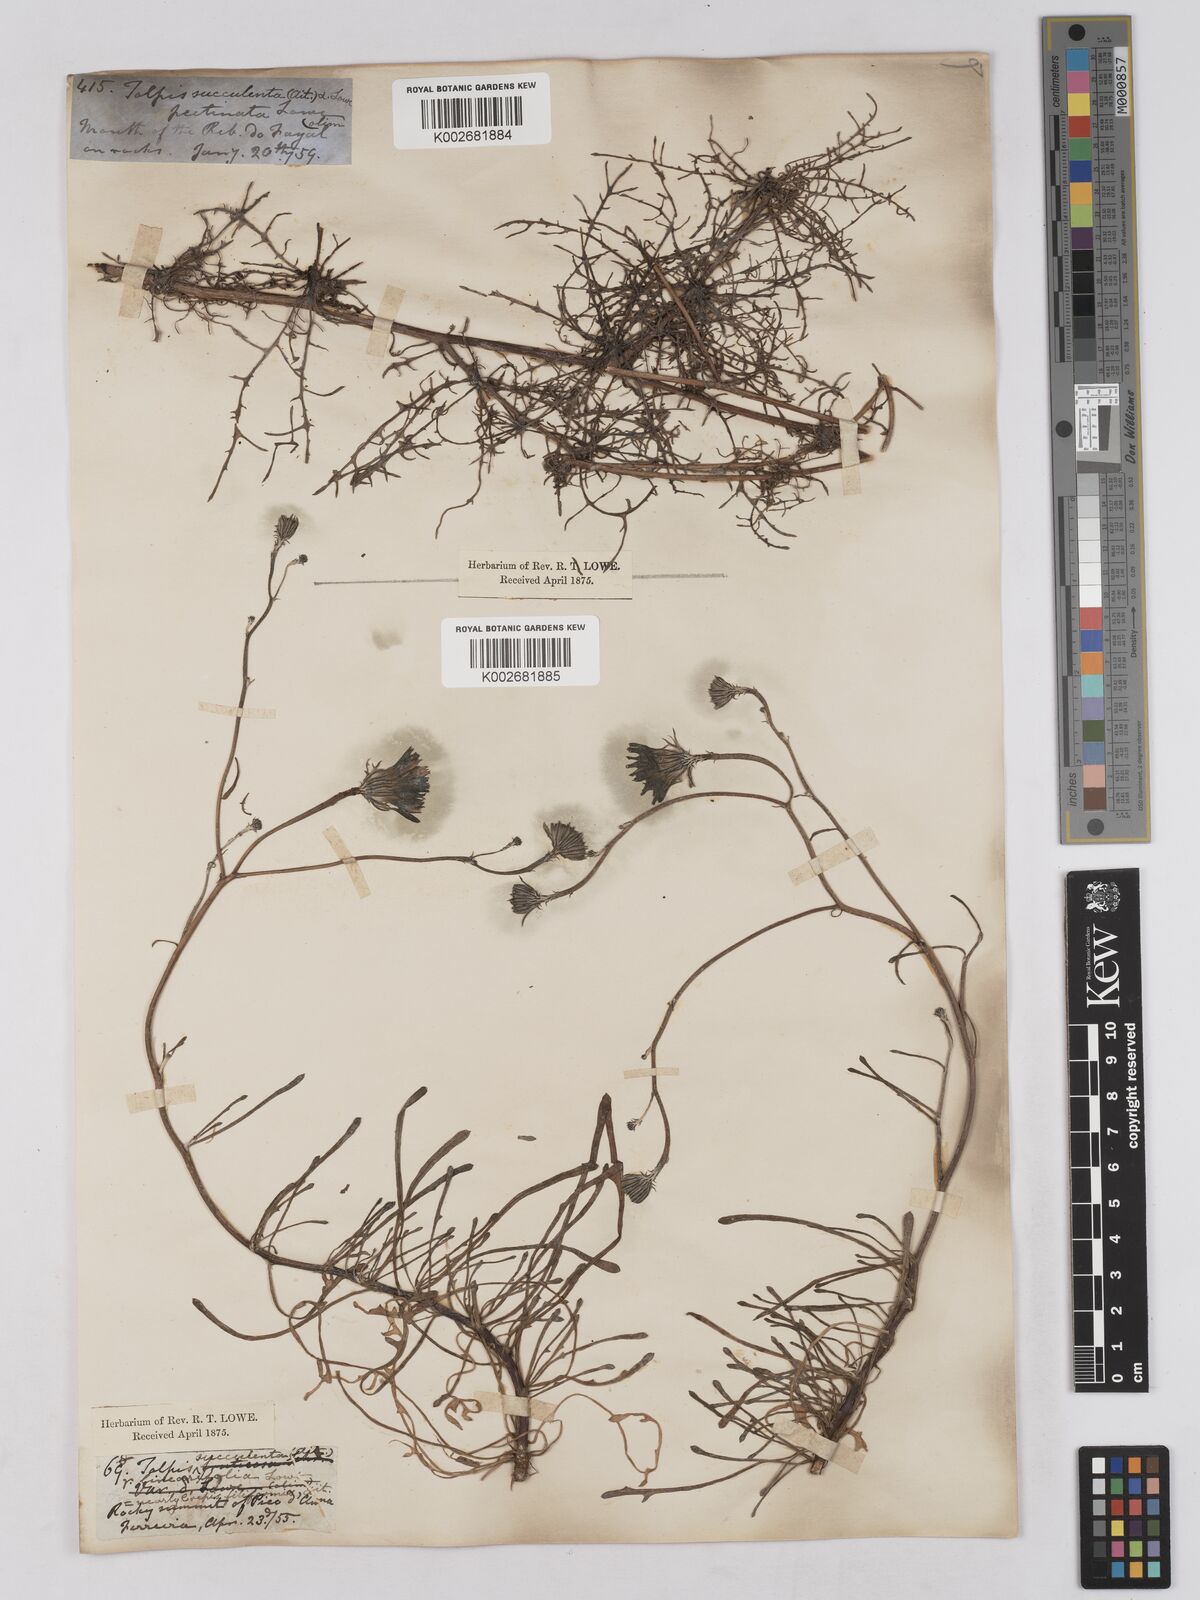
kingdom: Plantae
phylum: Tracheophyta
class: Magnoliopsida
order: Asterales
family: Asteraceae
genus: Tolpis
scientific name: Tolpis succulenta
